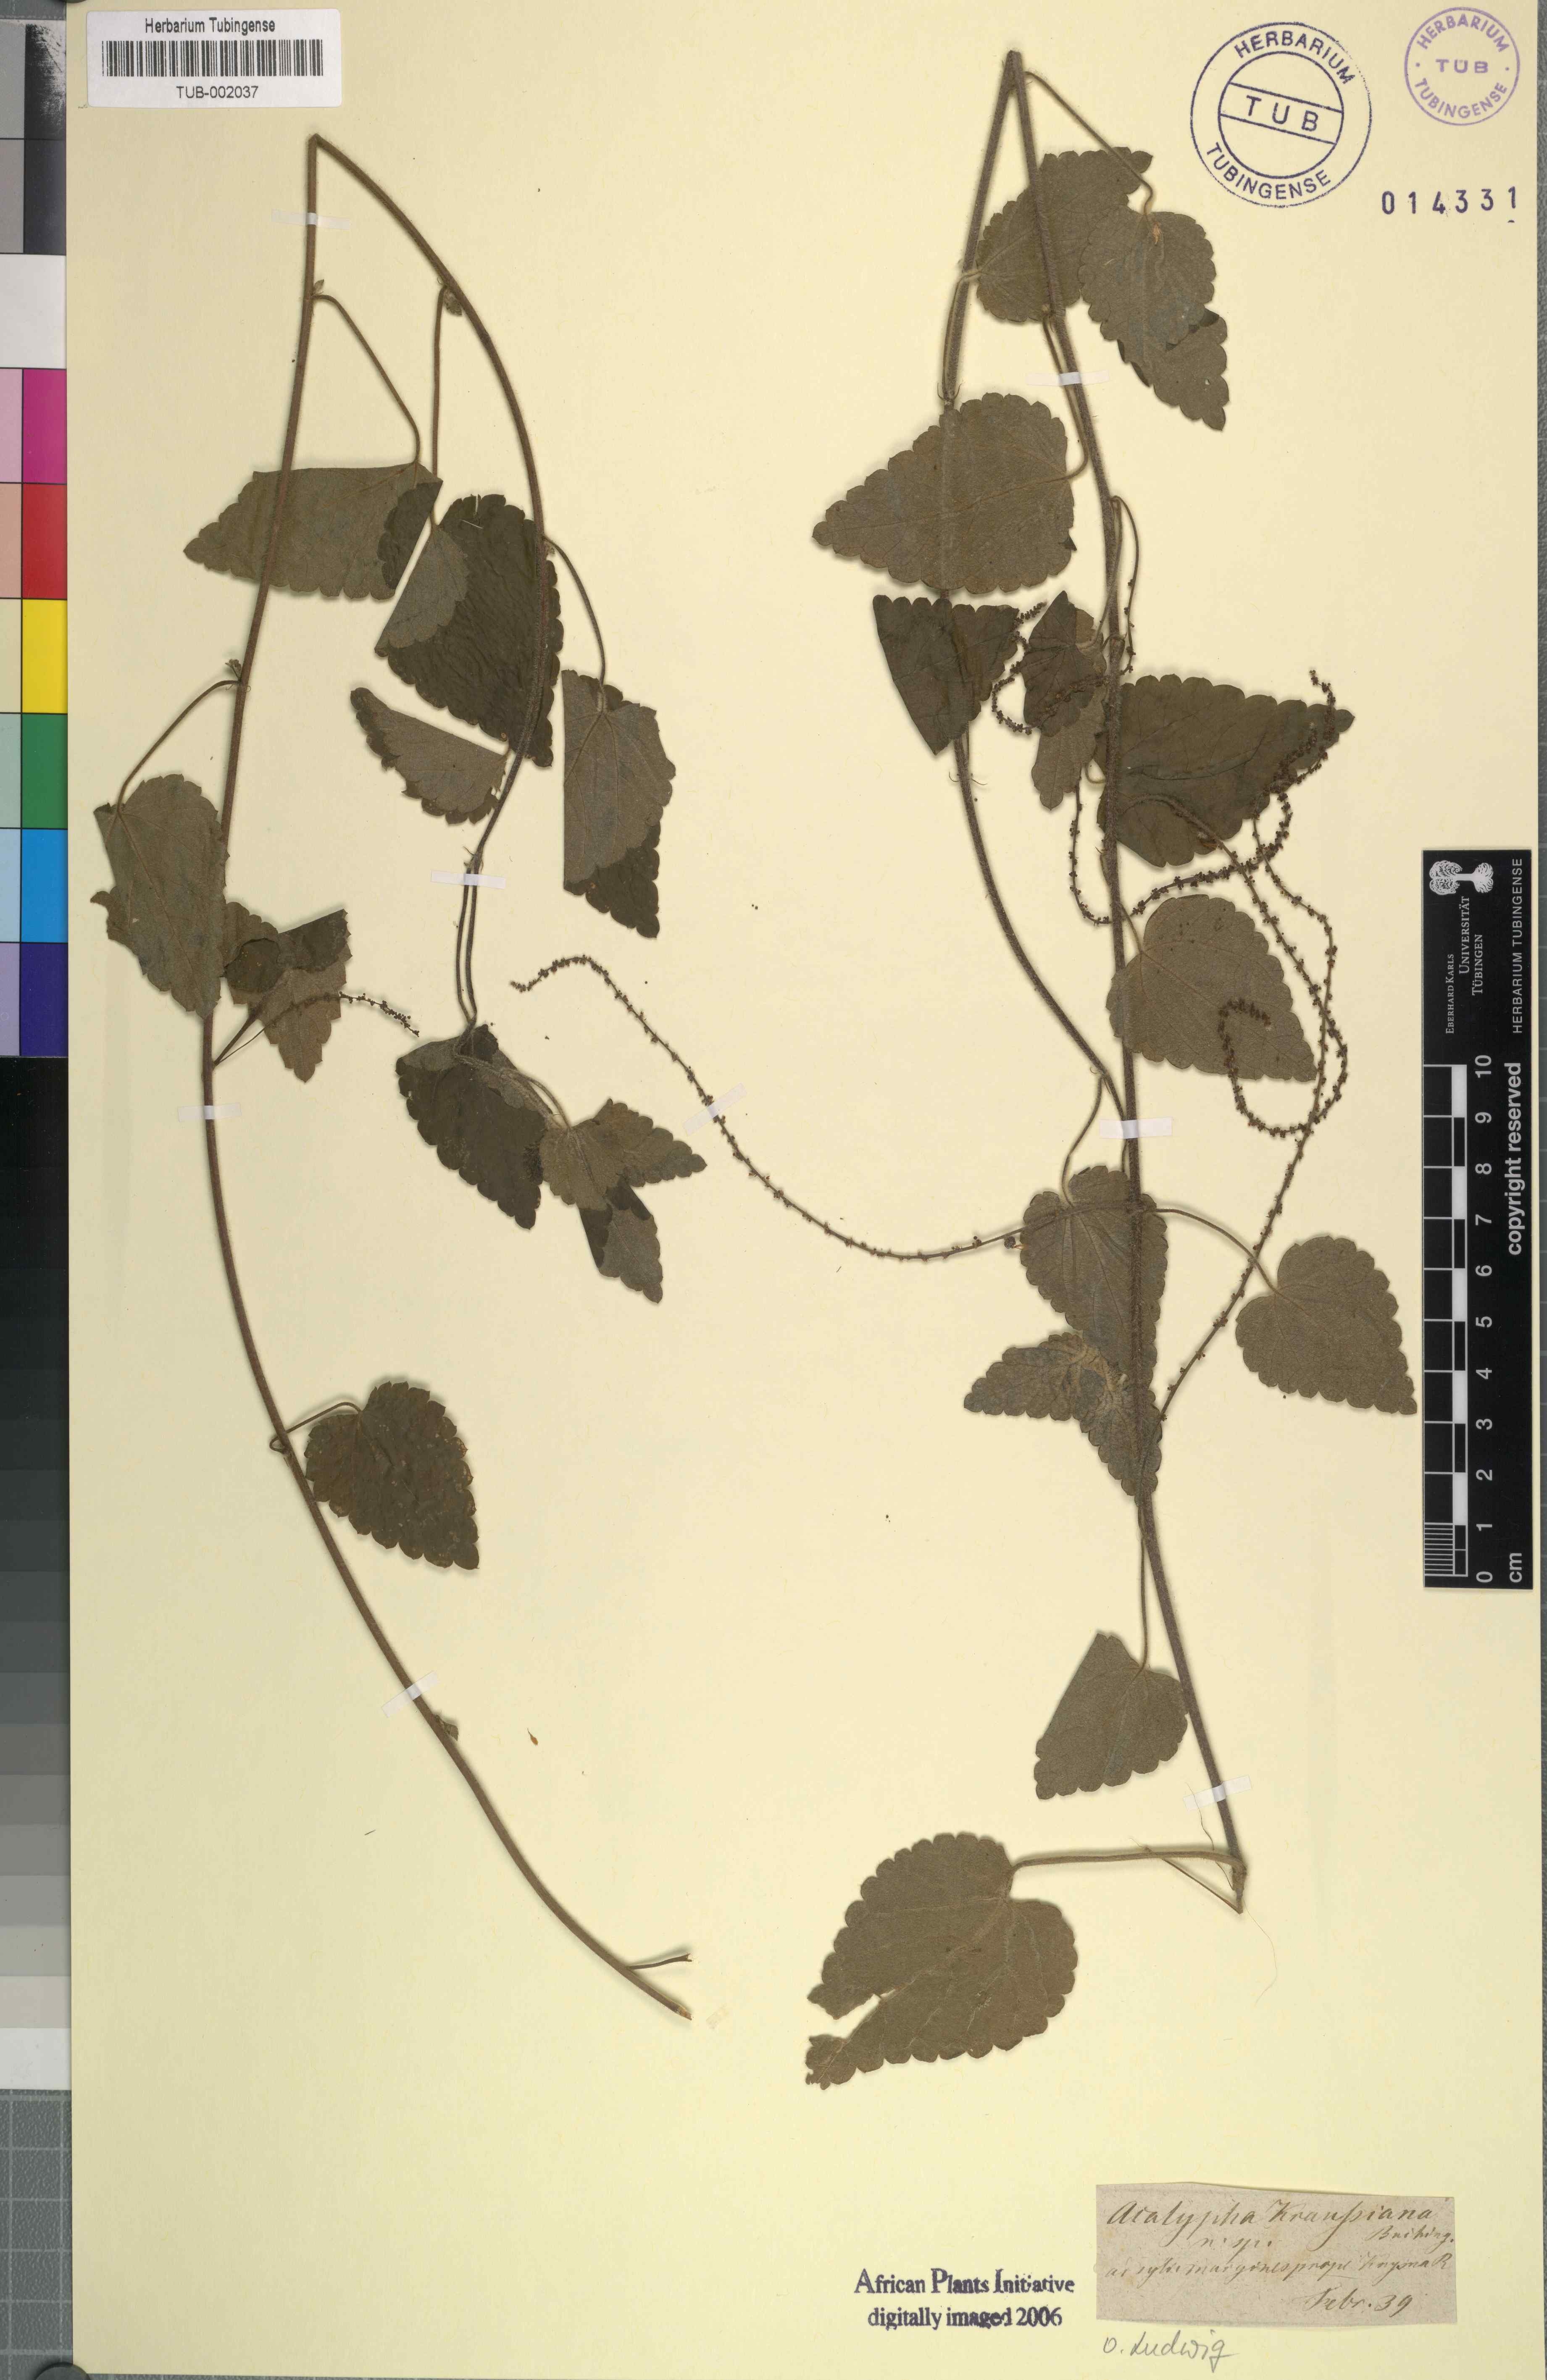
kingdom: Plantae
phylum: Tracheophyta
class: Magnoliopsida
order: Rosales
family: Urticaceae
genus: Didymodoxa
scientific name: Didymodoxa capensis
